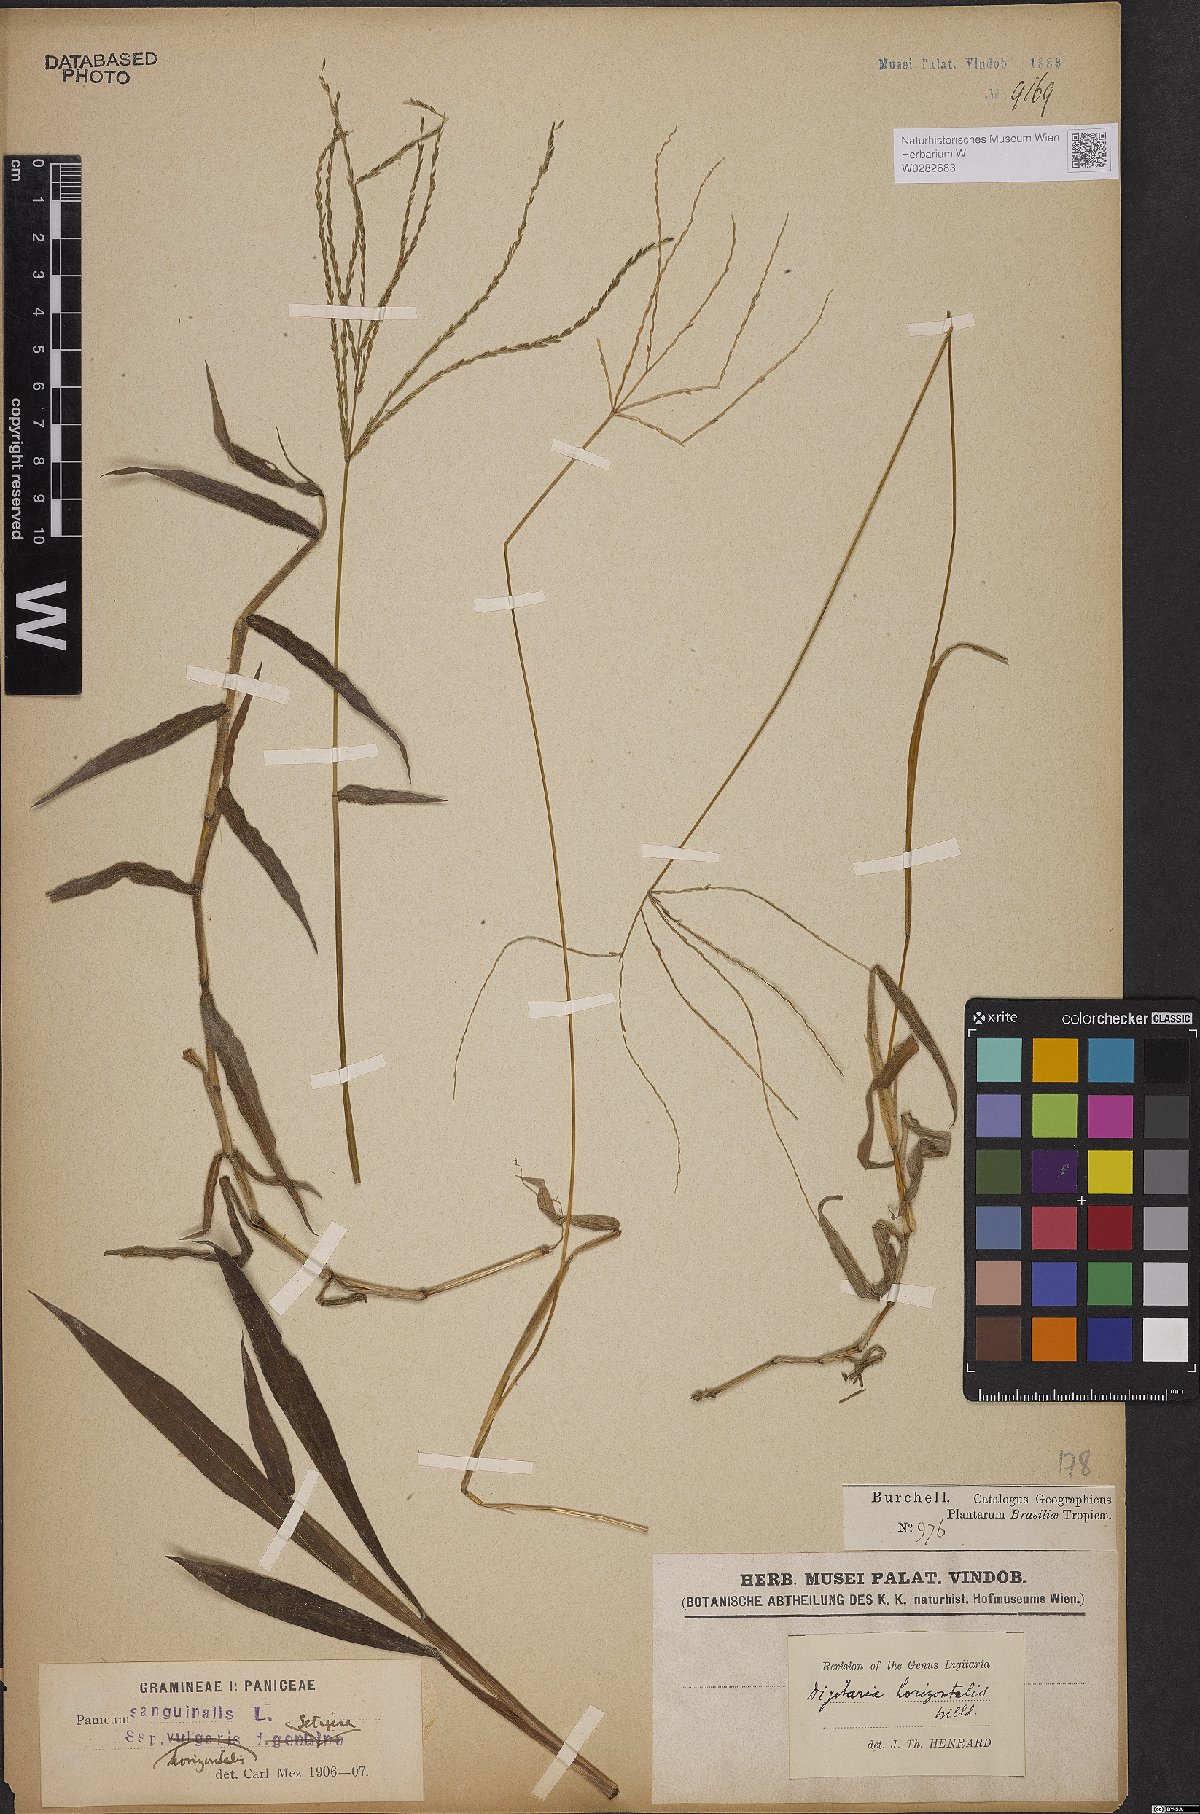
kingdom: Plantae
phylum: Tracheophyta
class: Liliopsida
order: Poales
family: Poaceae
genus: Digitaria
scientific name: Digitaria horizontalis
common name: Jamaican crabgrass
